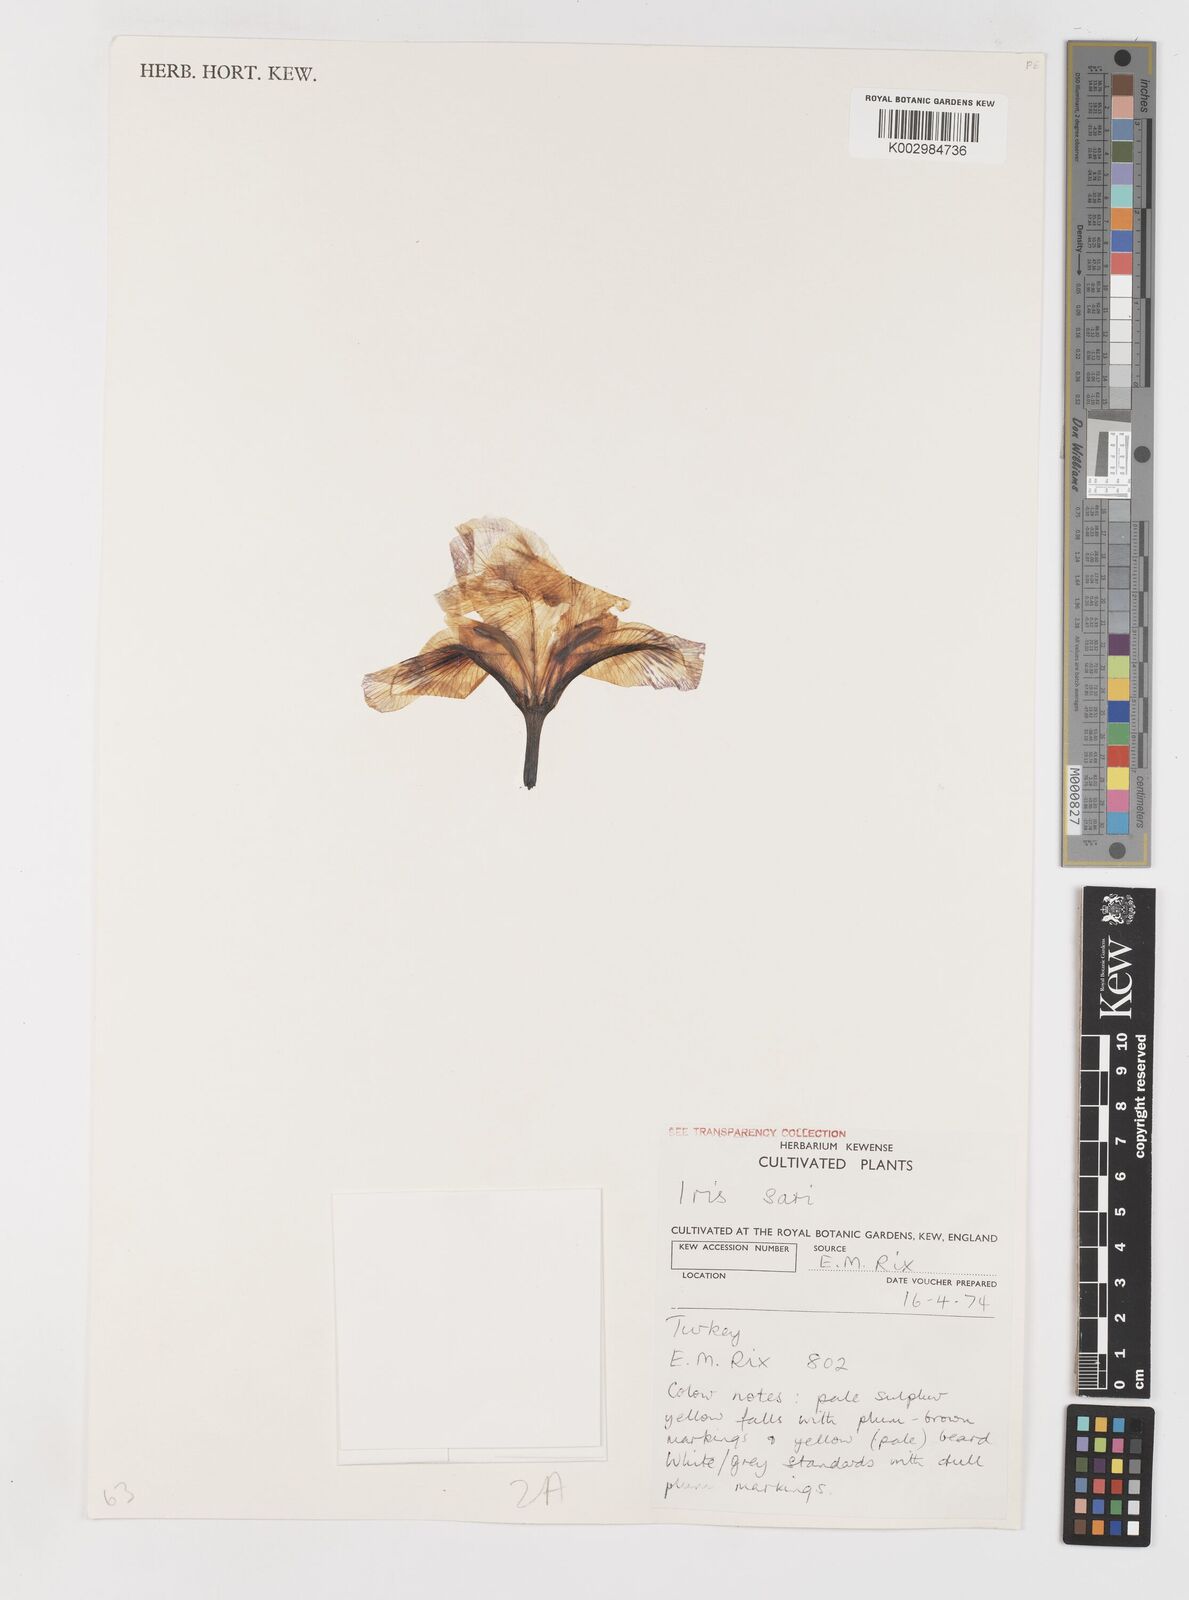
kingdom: Plantae
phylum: Tracheophyta
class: Liliopsida
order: Asparagales
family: Iridaceae
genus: Iris
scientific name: Iris sari
